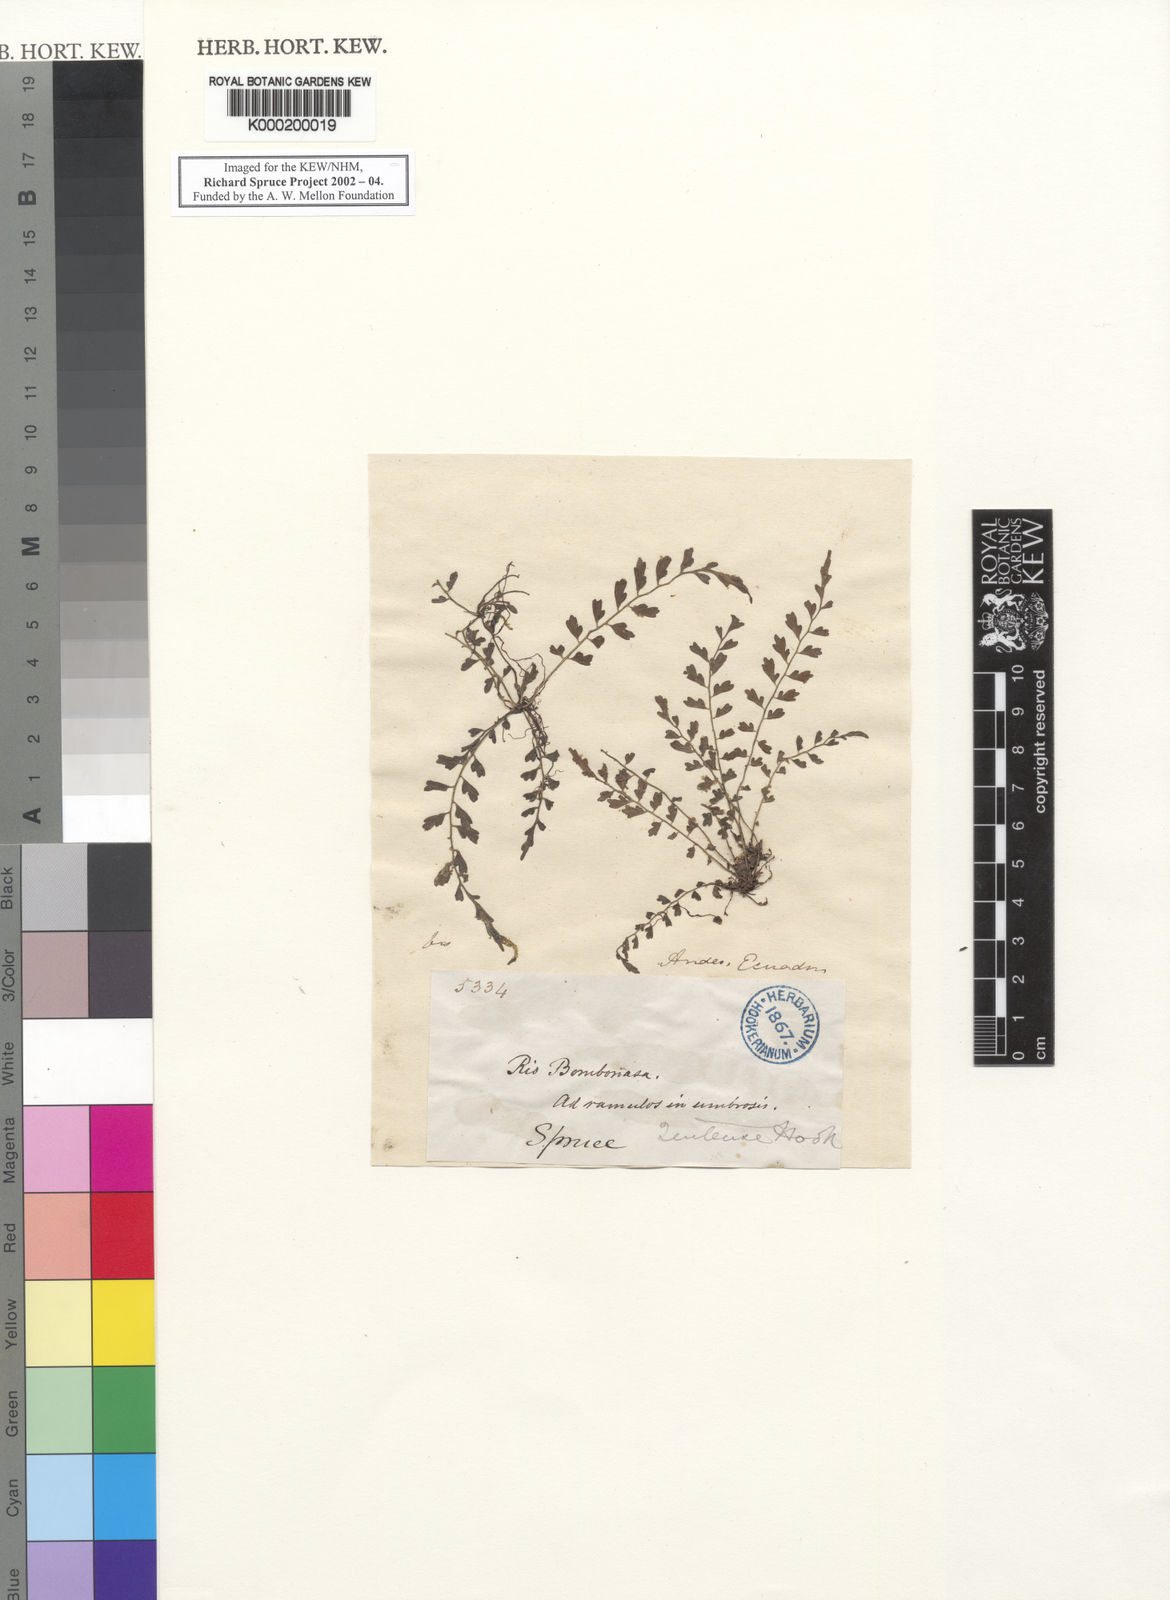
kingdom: Plantae
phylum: Tracheophyta
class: Polypodiopsida
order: Polypodiales
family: Aspleniaceae
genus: Asplenium
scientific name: Asplenium quitense
